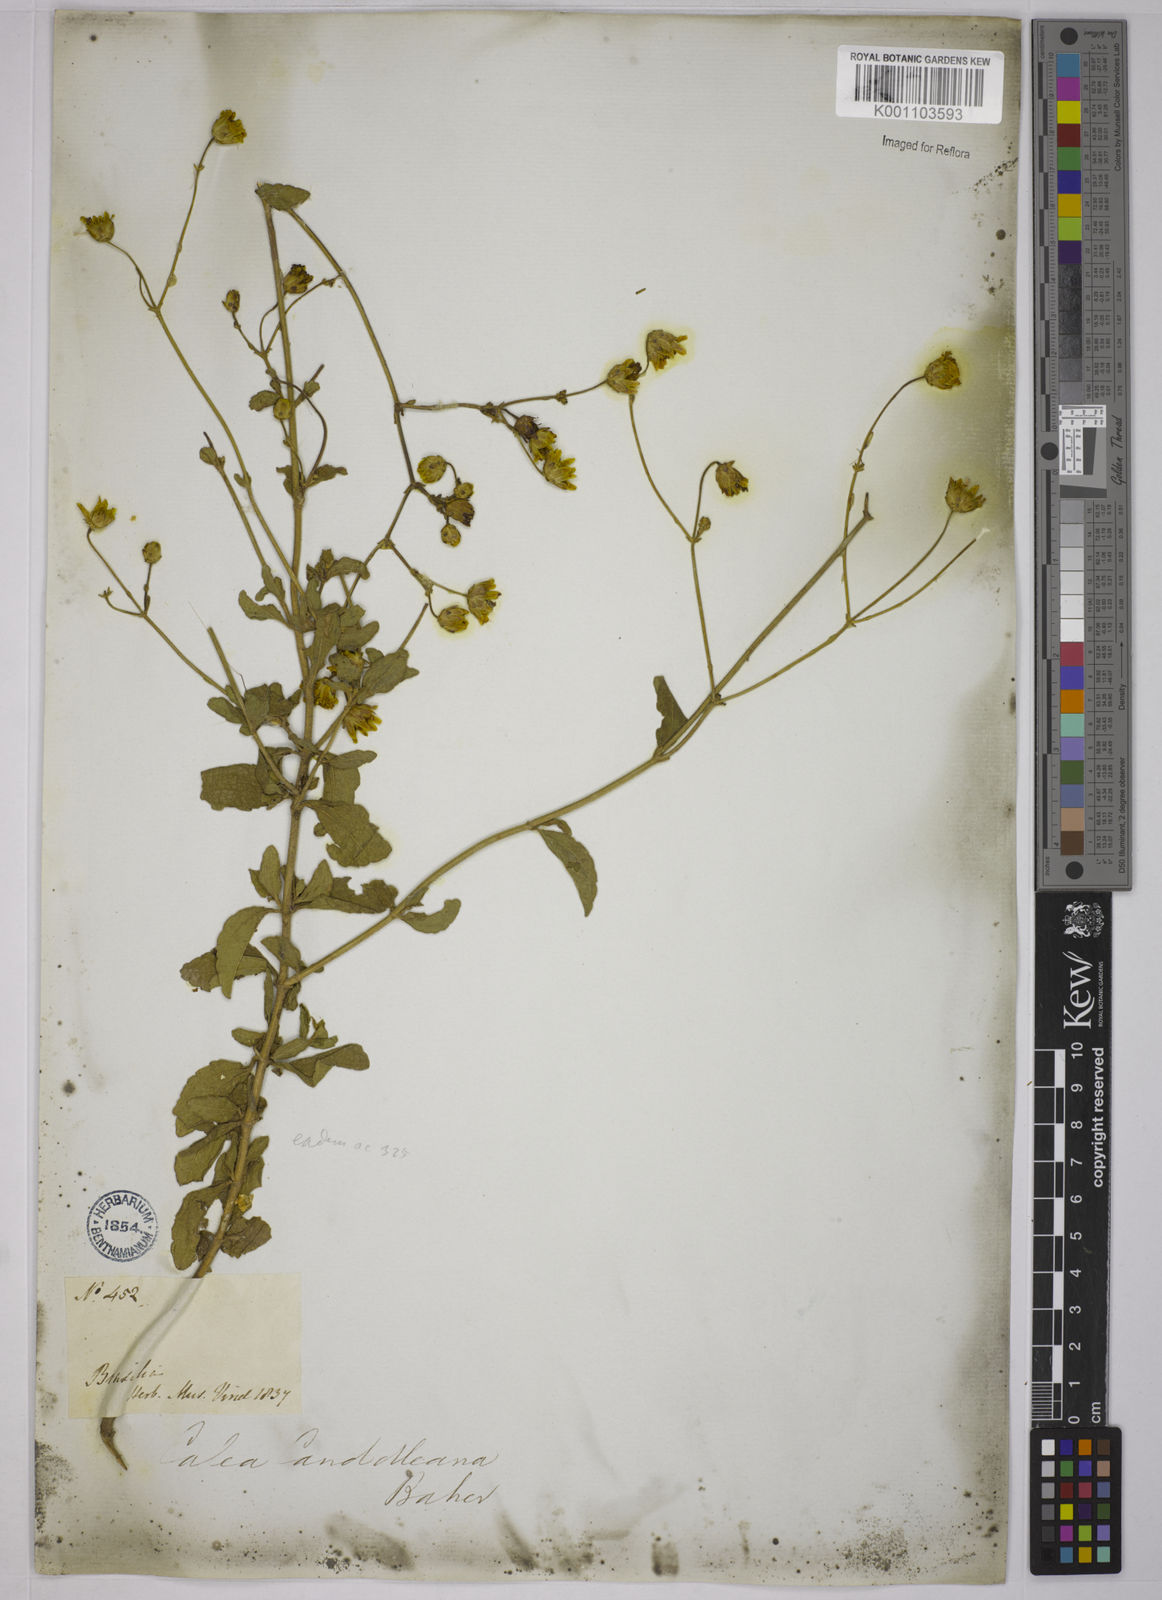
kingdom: Plantae
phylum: Tracheophyta
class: Magnoliopsida
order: Asterales
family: Asteraceae
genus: Calea
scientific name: Calea candolleana
